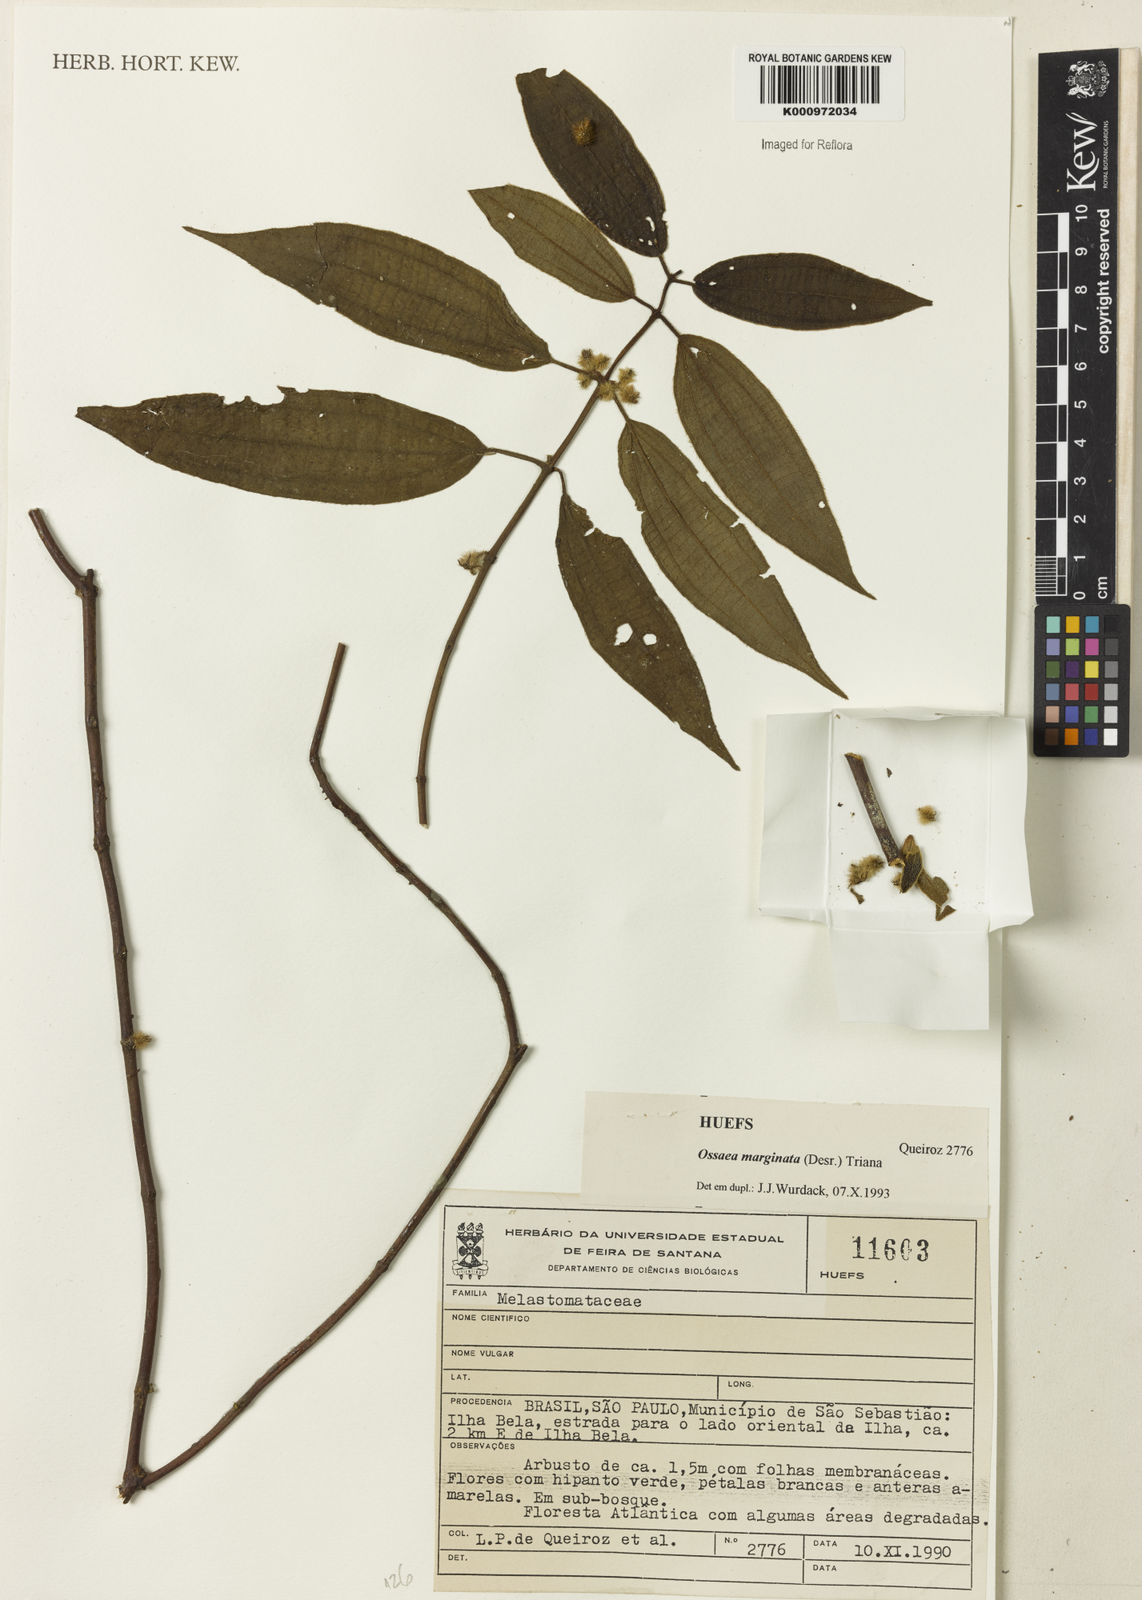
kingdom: Plantae
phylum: Tracheophyta
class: Magnoliopsida
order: Myrtales
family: Melastomataceae
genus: Miconia
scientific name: Miconia leamarginata
